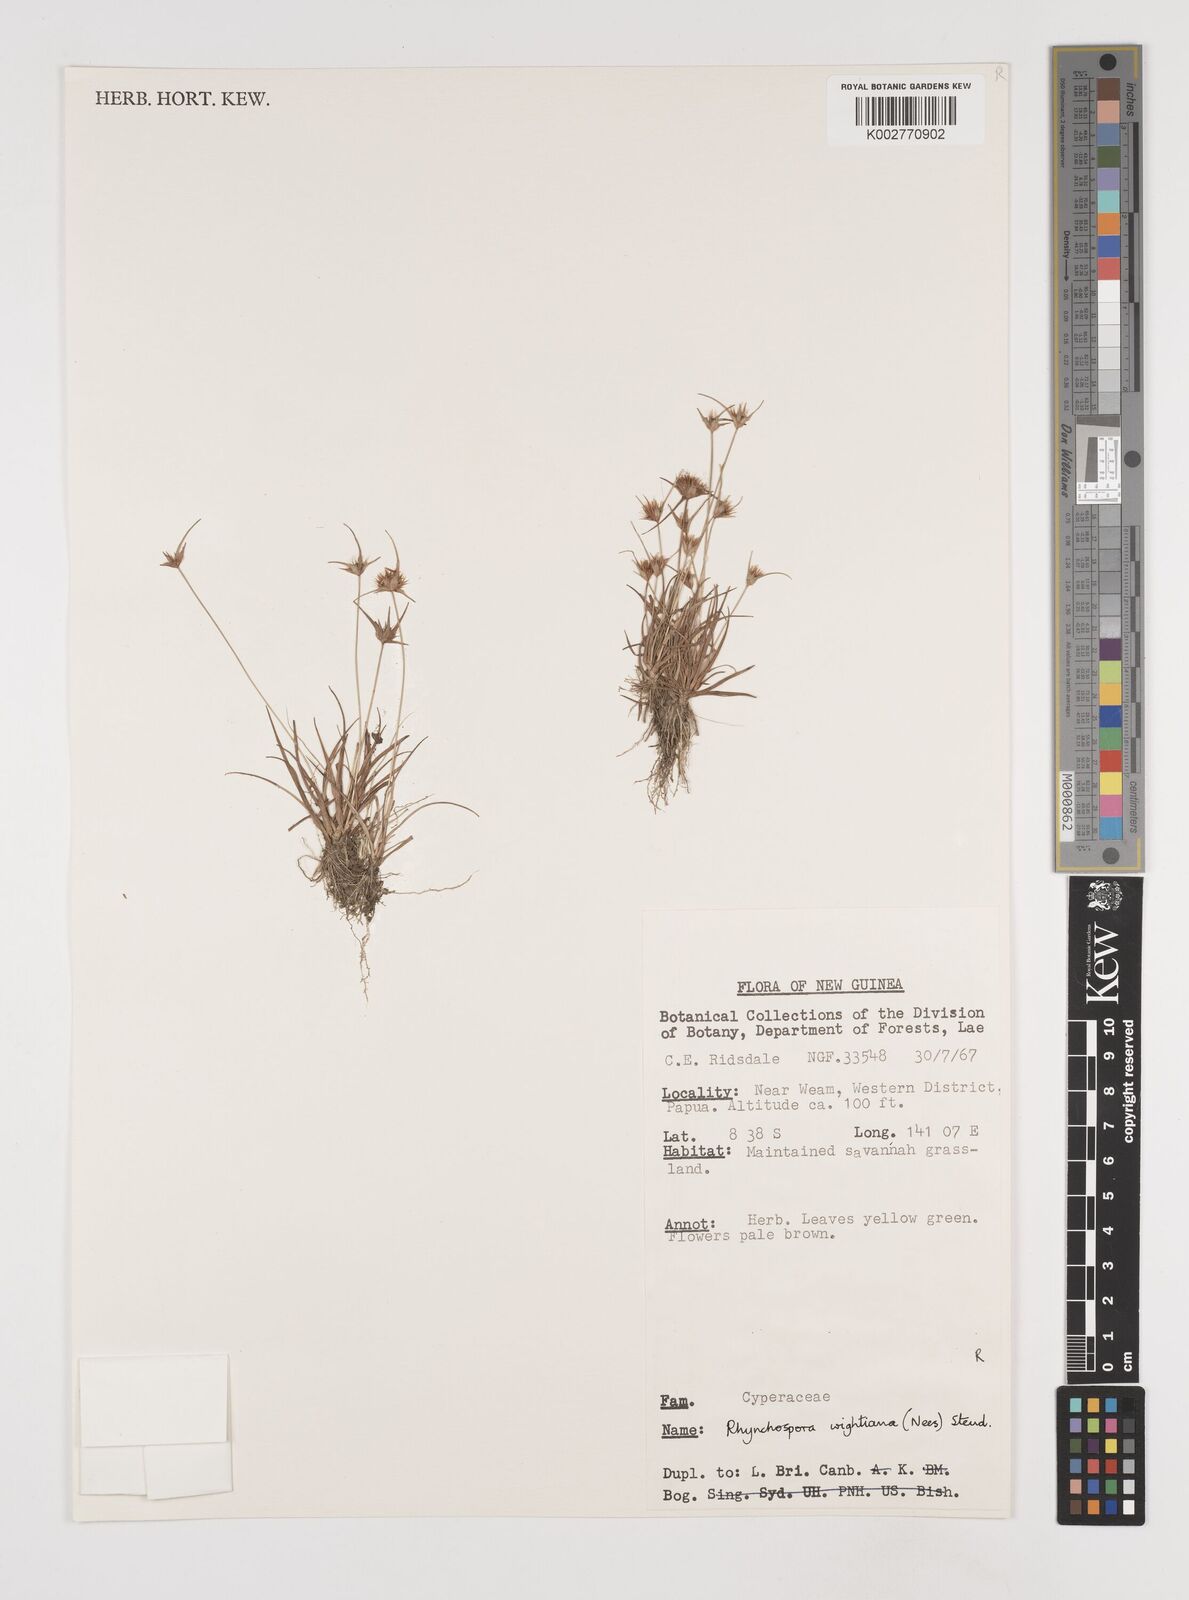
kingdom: Plantae
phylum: Tracheophyta
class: Liliopsida
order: Poales
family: Cyperaceae
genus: Rhynchospora
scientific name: Rhynchospora wightiana
